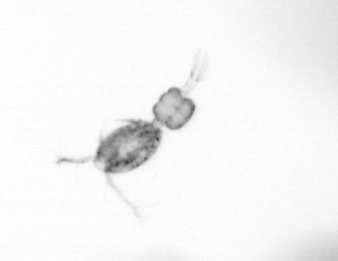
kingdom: Animalia
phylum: Arthropoda
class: Copepoda
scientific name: Copepoda
